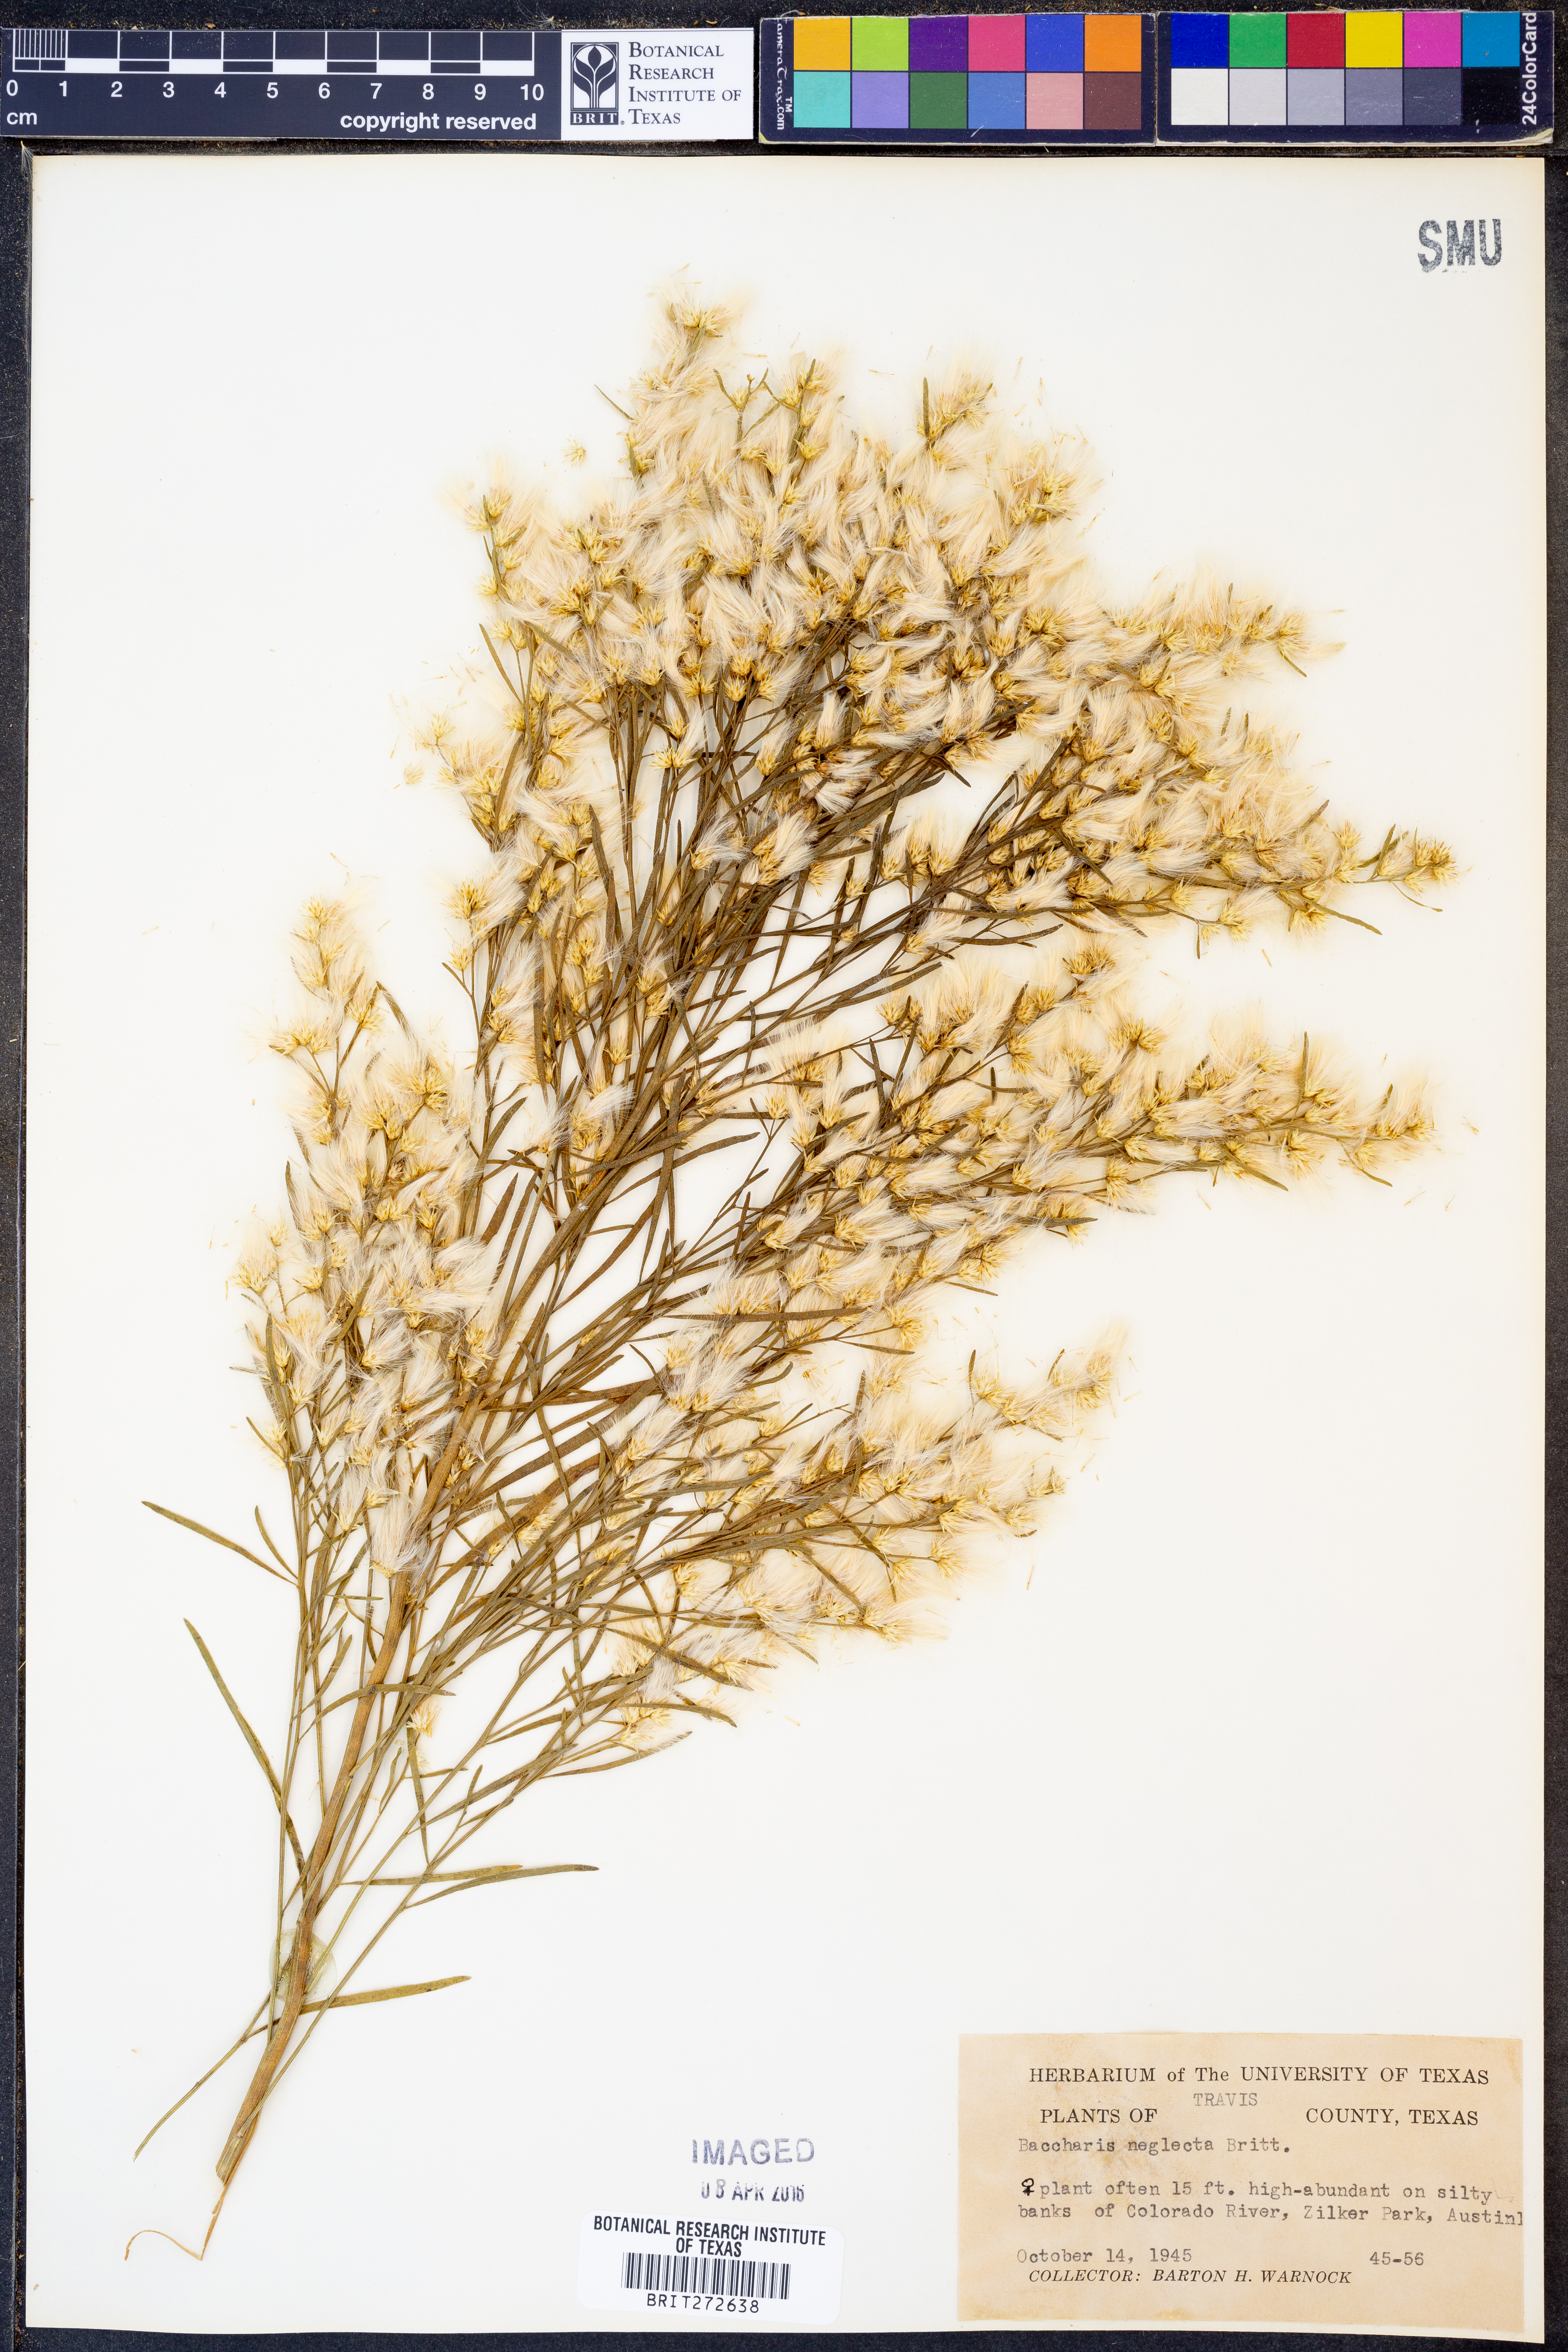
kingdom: Plantae
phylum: Tracheophyta
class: Magnoliopsida
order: Asterales
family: Asteraceae
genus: Baccharis
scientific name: Baccharis neglecta
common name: Roosevelt-weed
